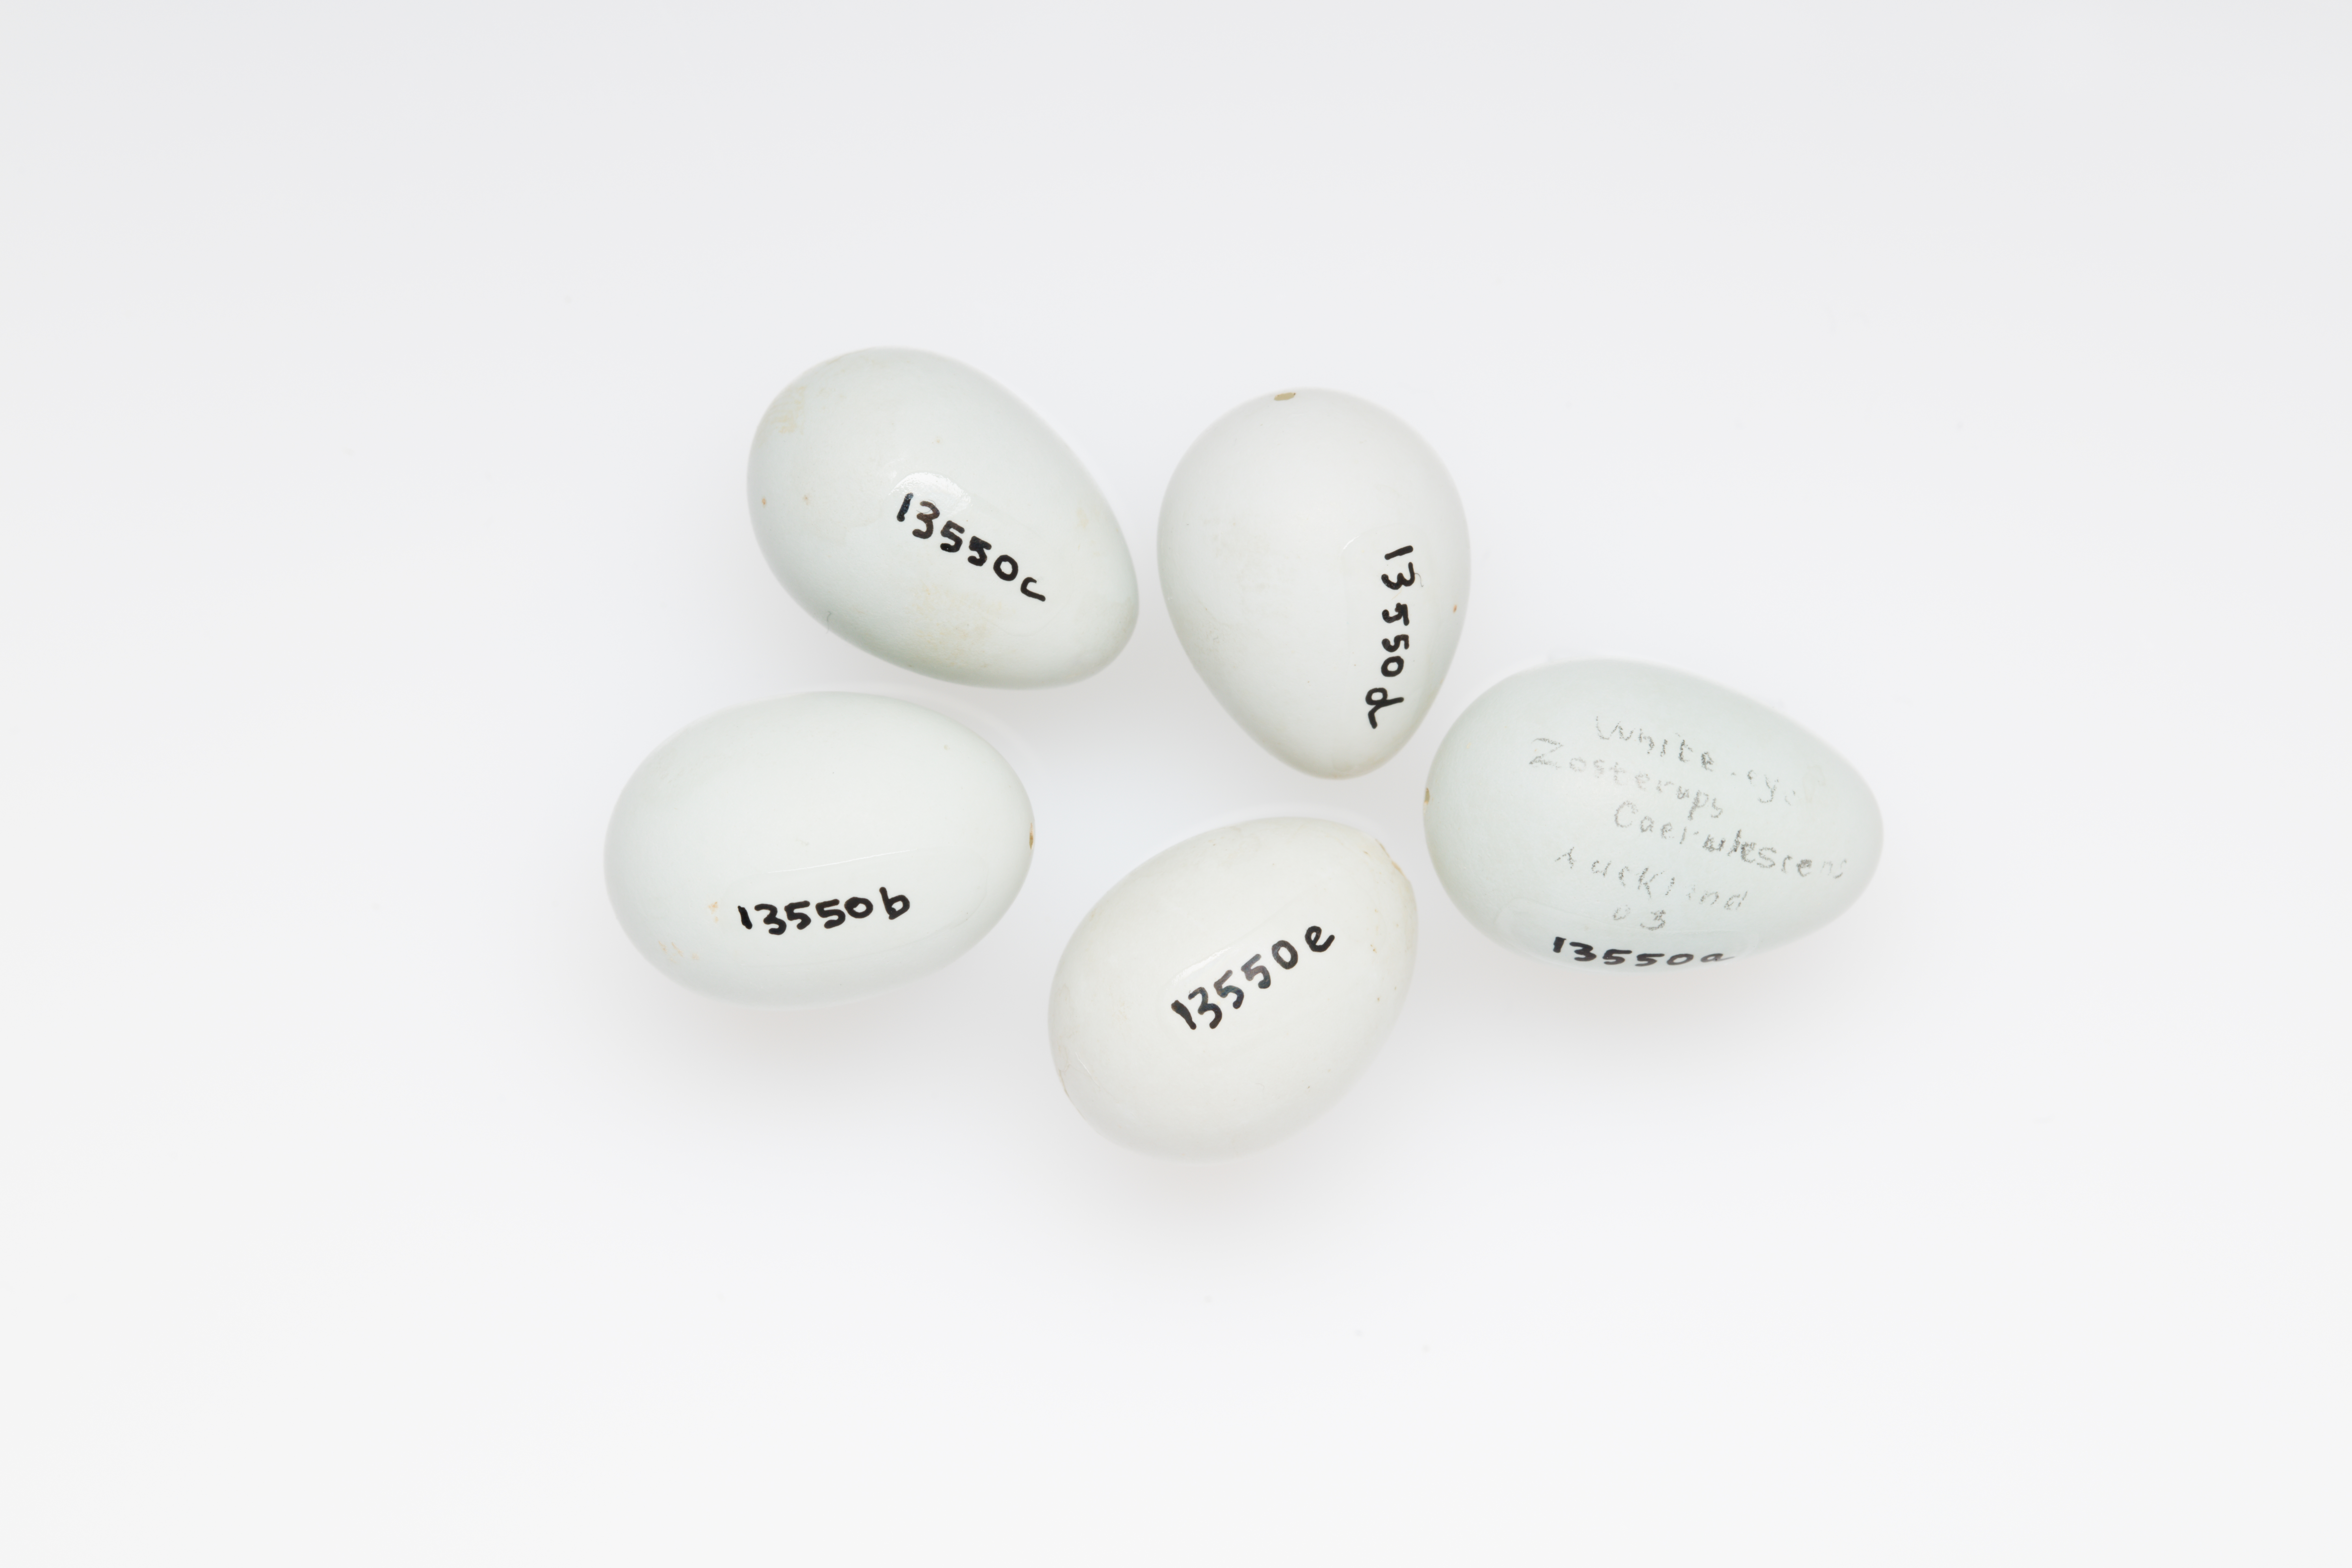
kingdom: Animalia
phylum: Chordata
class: Aves
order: Passeriformes
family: Zosteropidae
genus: Zosterops
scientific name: Zosterops lateralis
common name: Silvereye
